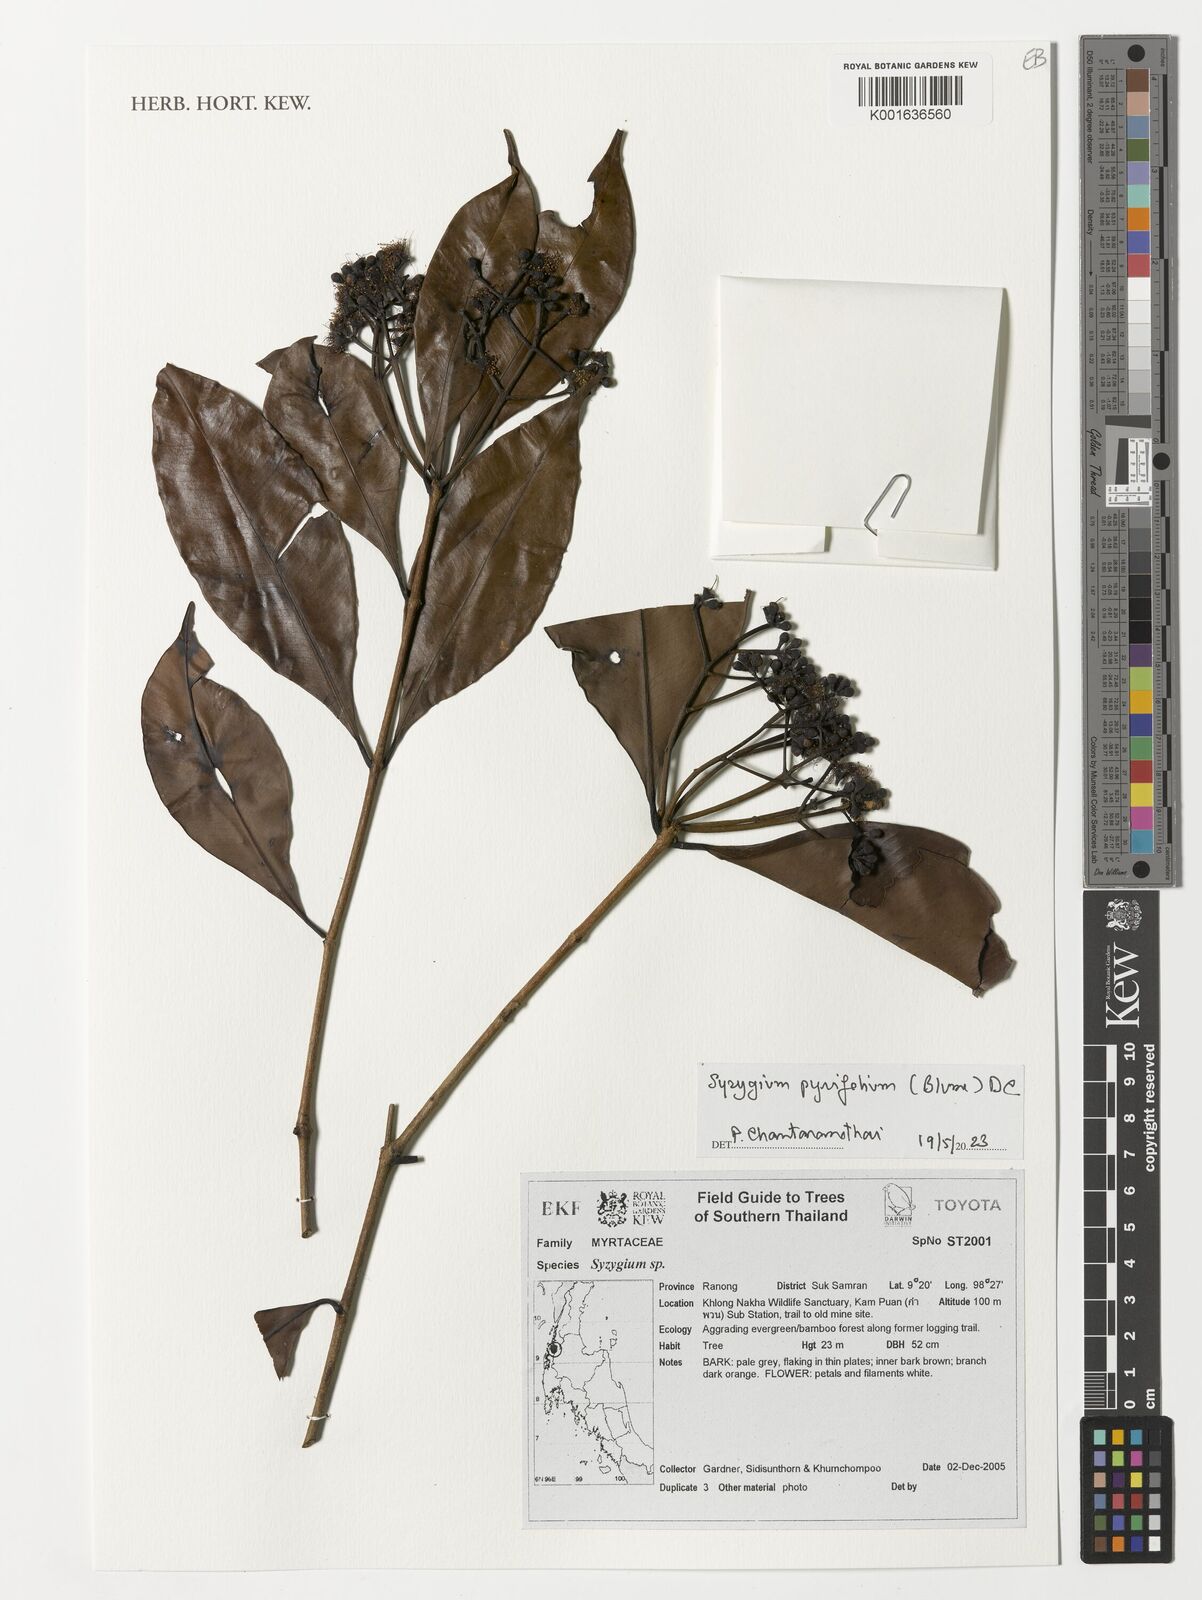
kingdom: Plantae
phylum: Tracheophyta
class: Magnoliopsida
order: Myrtales
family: Myrtaceae
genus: Syzygium
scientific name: Syzygium pyrifolium
